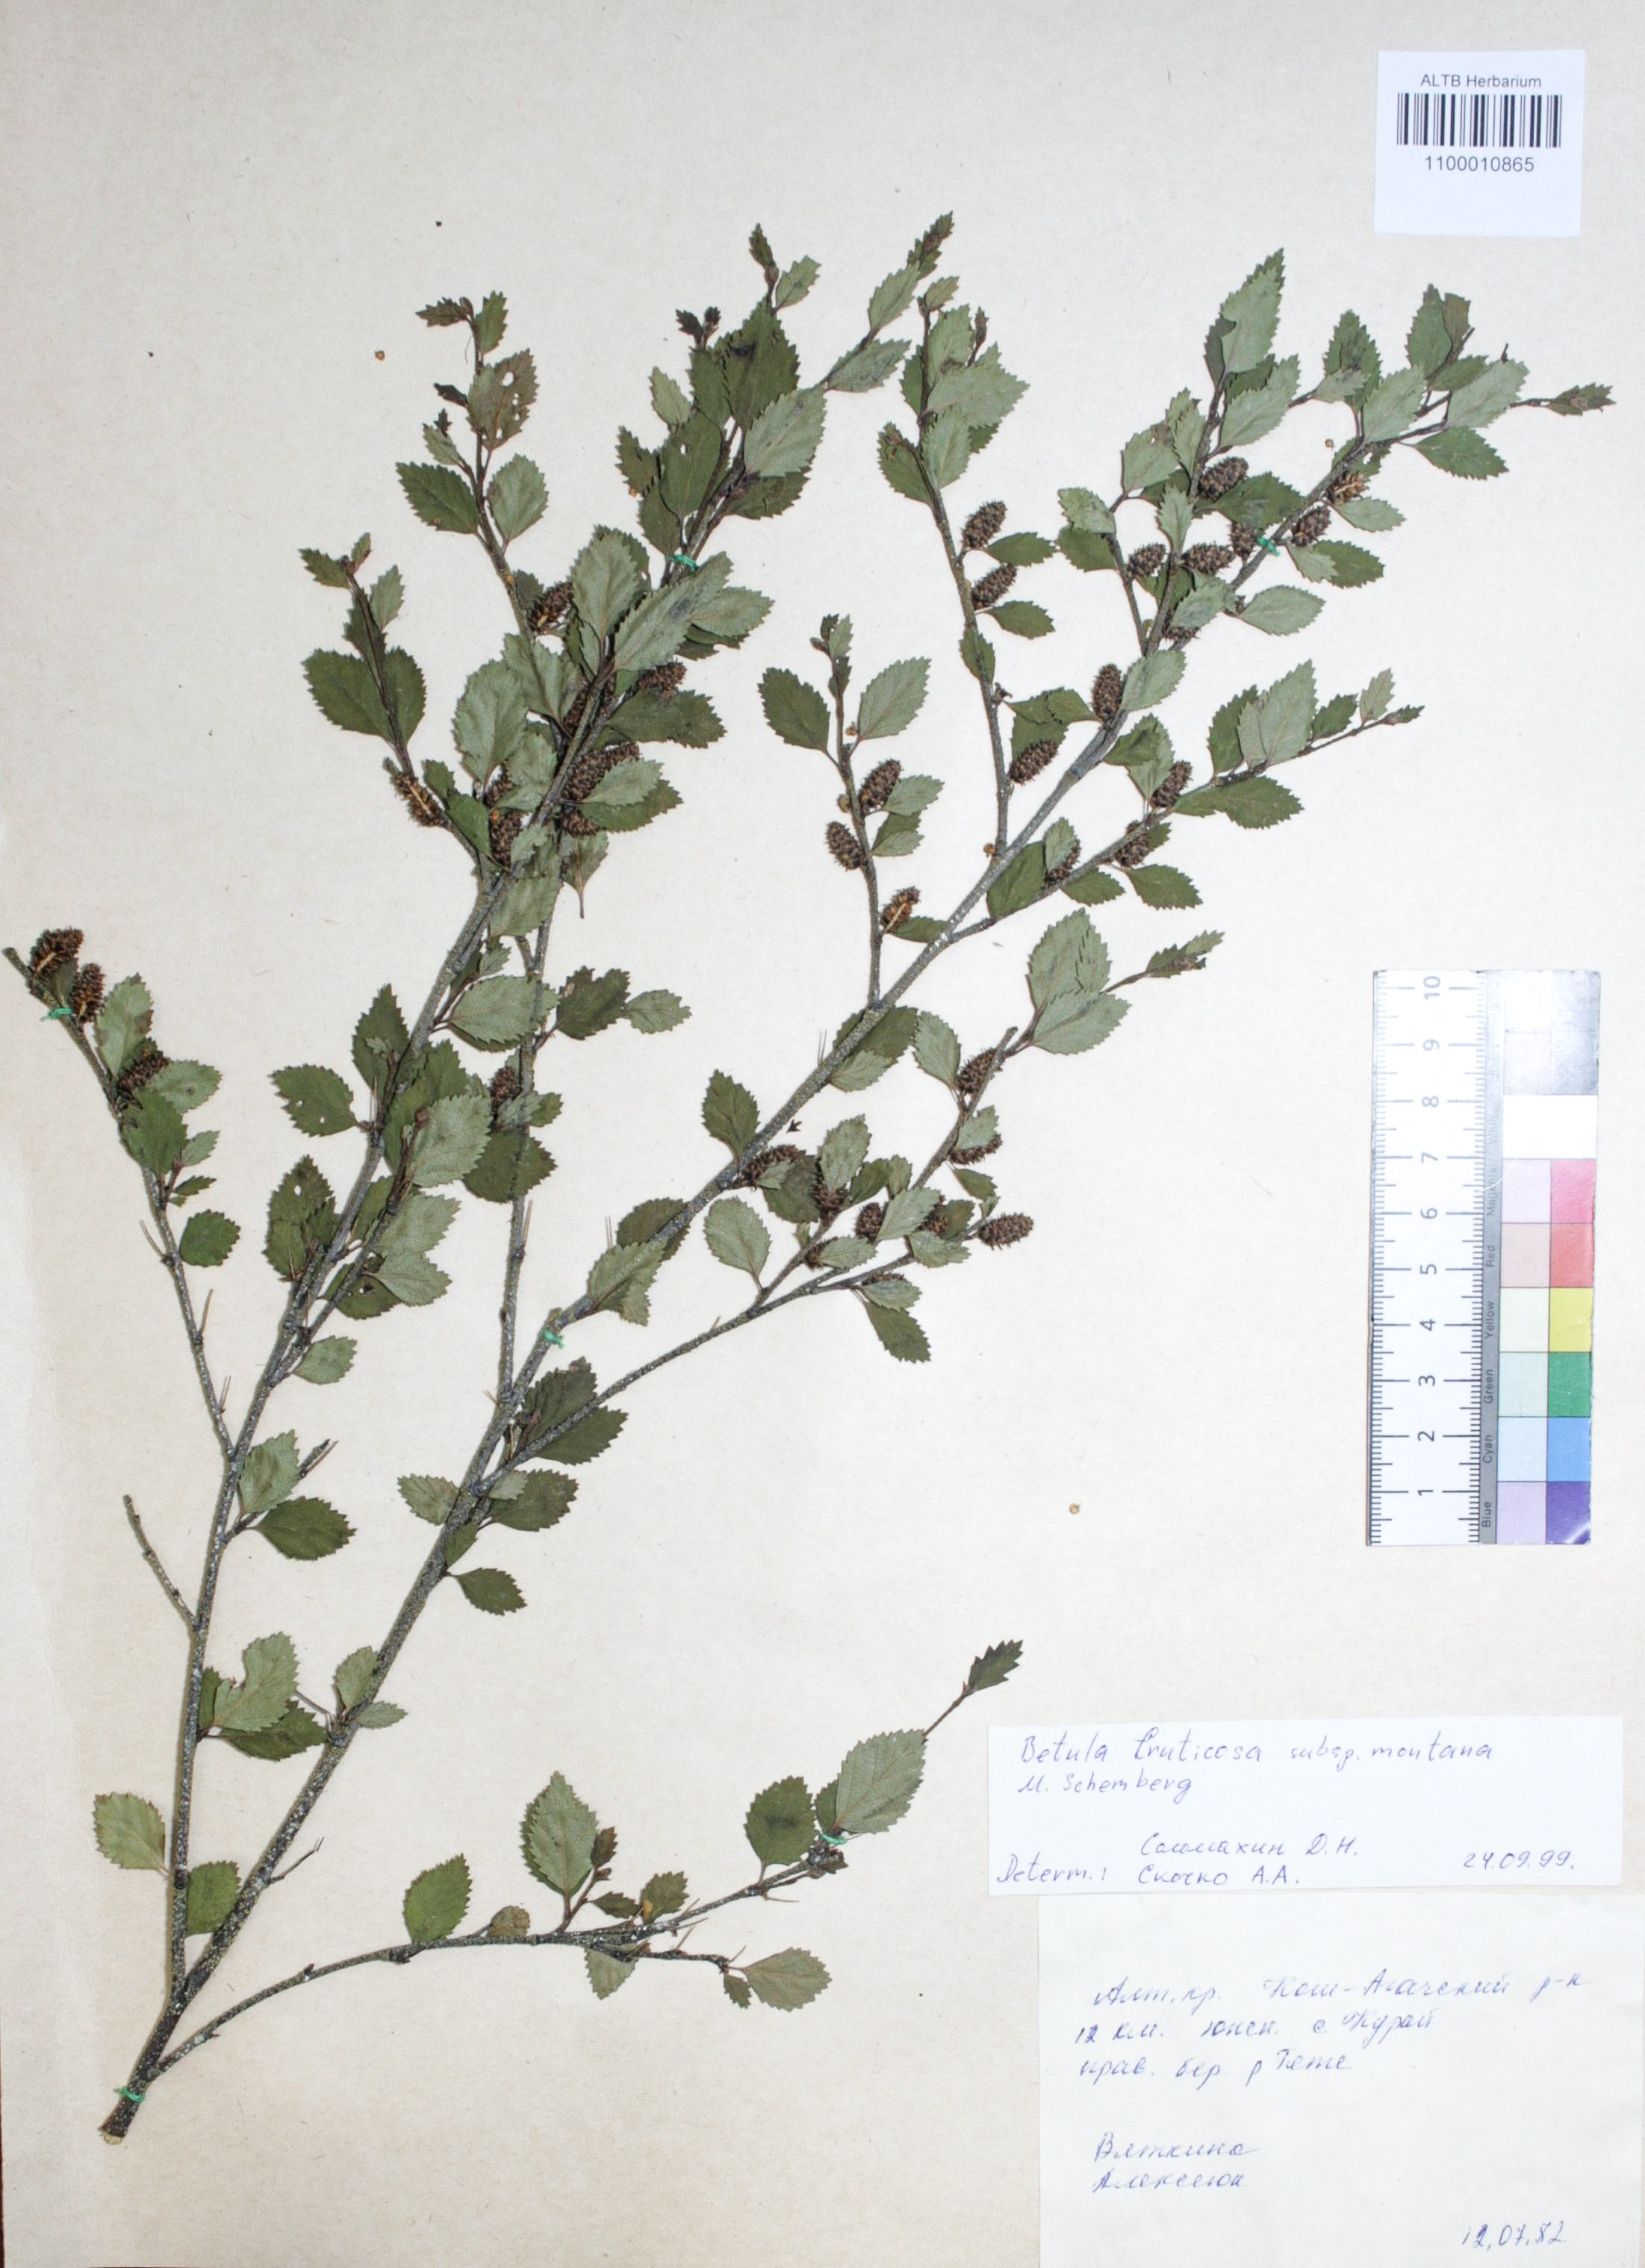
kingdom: Plantae
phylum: Tracheophyta
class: Magnoliopsida
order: Fagales
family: Betulaceae
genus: Betula
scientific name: Betula fruticosa
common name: Japanese bog birch
